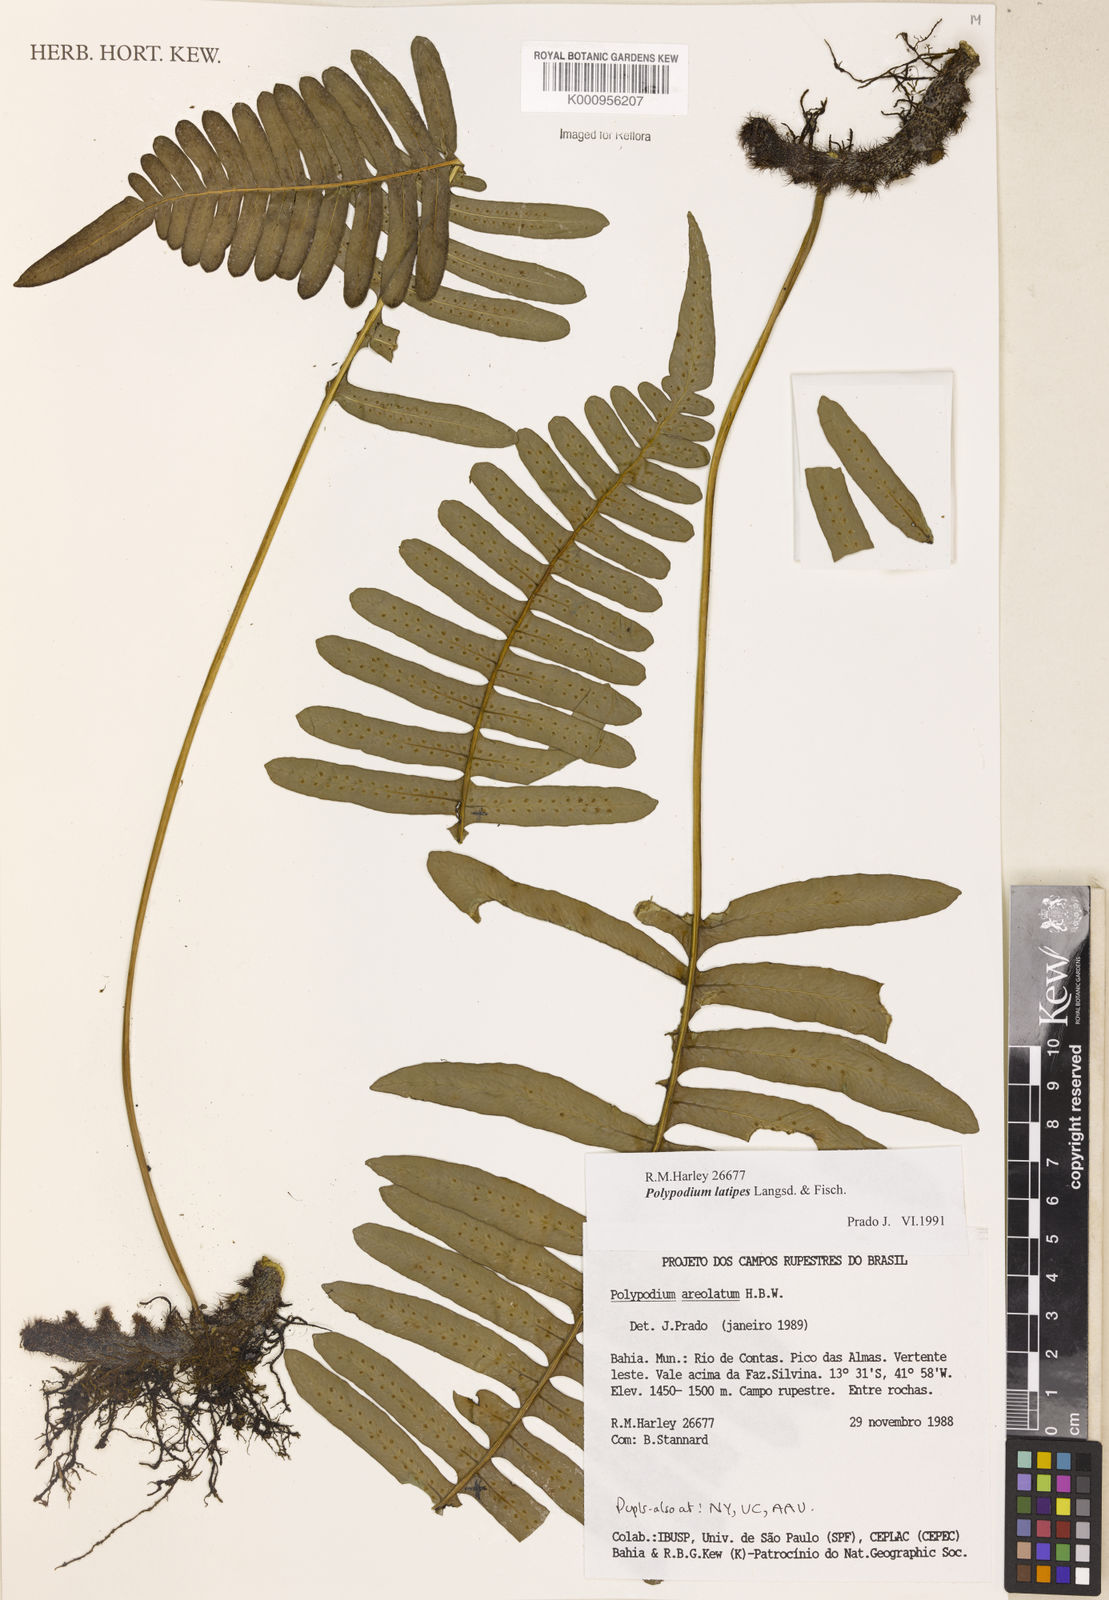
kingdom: Plantae
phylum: Tracheophyta
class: Polypodiopsida
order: Polypodiales
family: Polypodiaceae
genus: Serpocaulon
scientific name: Serpocaulon latipes
